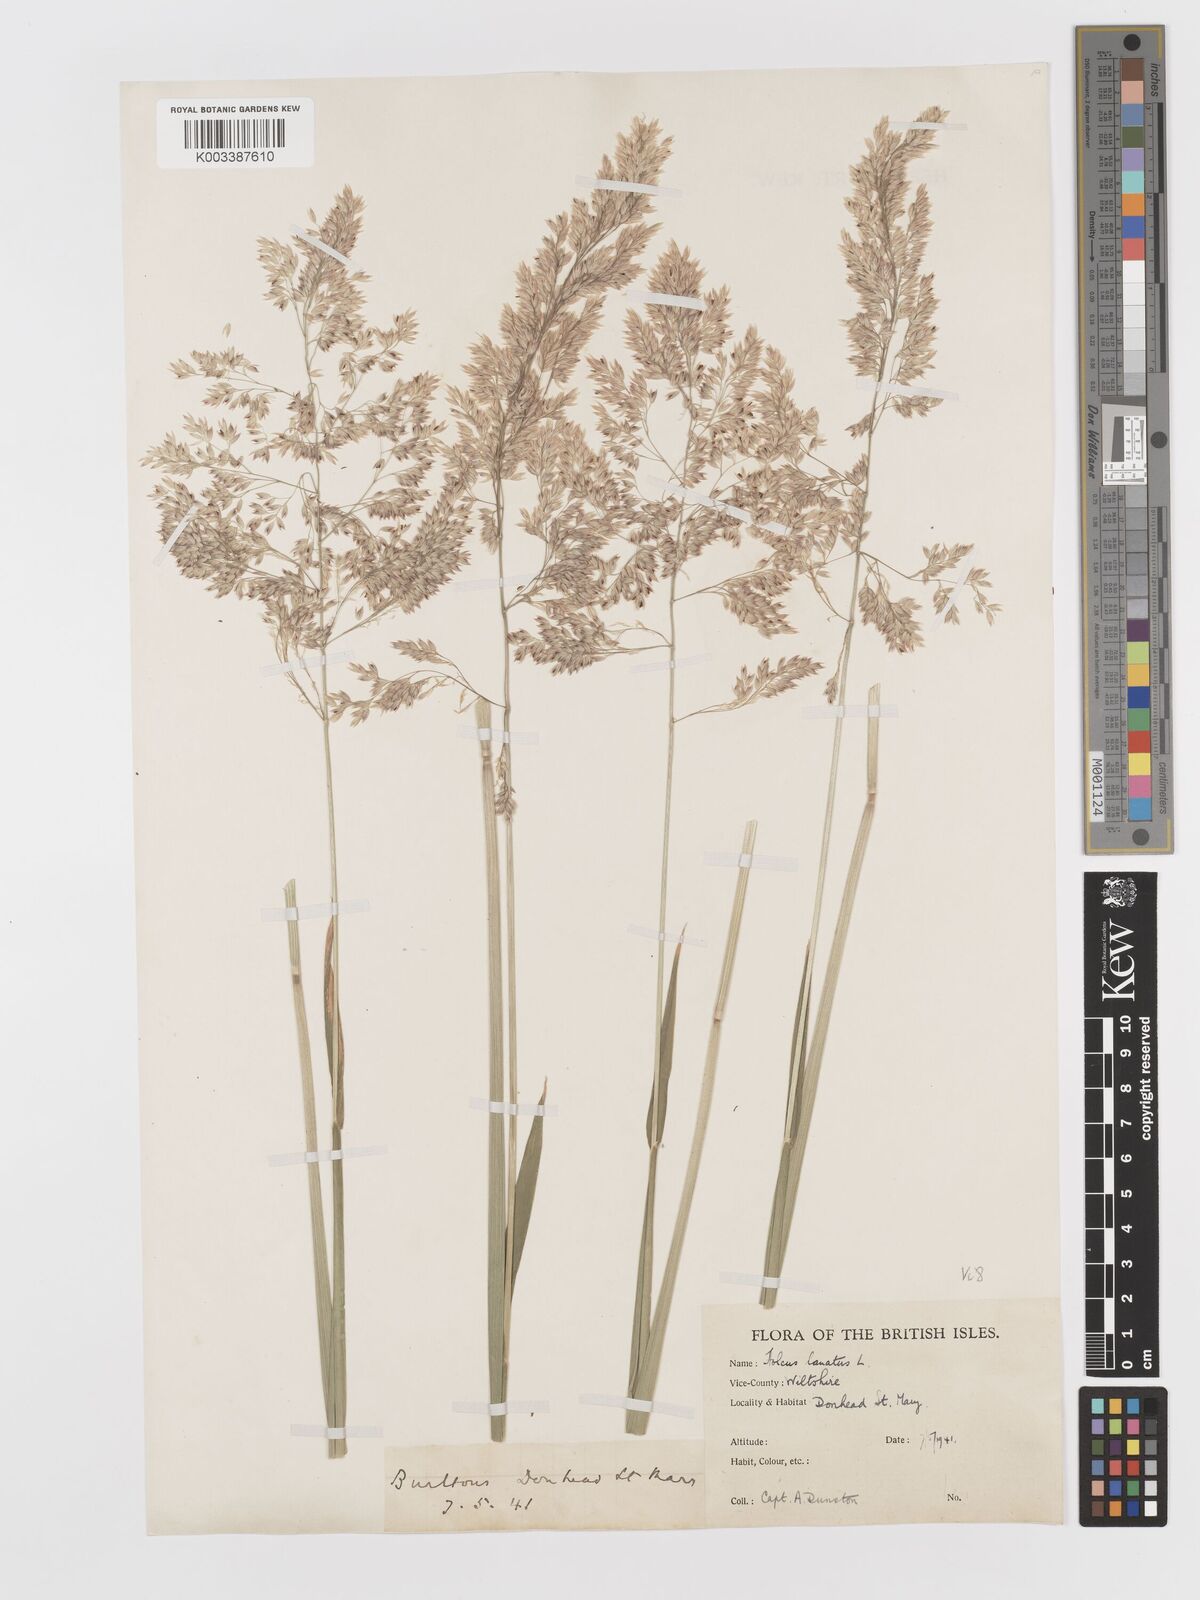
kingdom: Plantae
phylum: Tracheophyta
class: Liliopsida
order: Poales
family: Poaceae
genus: Holcus
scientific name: Holcus lanatus
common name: Yorkshire-fog
